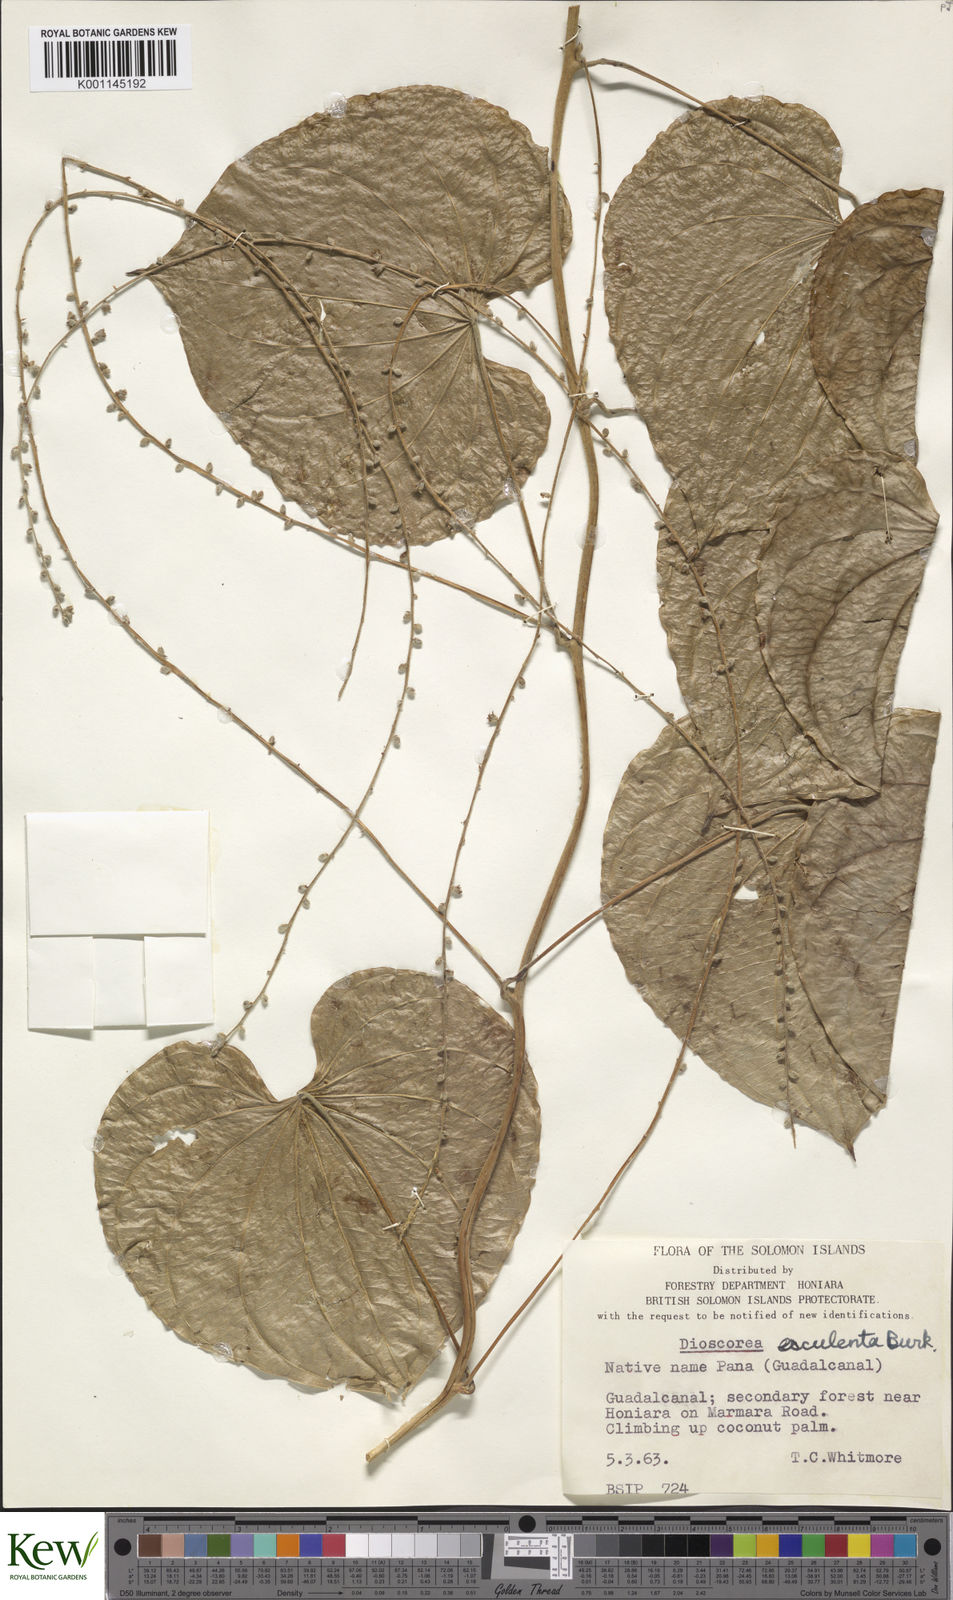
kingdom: Plantae
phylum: Tracheophyta
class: Liliopsida
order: Dioscoreales
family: Dioscoreaceae
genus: Dioscorea
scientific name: Dioscorea esculenta
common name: Chinese yam
